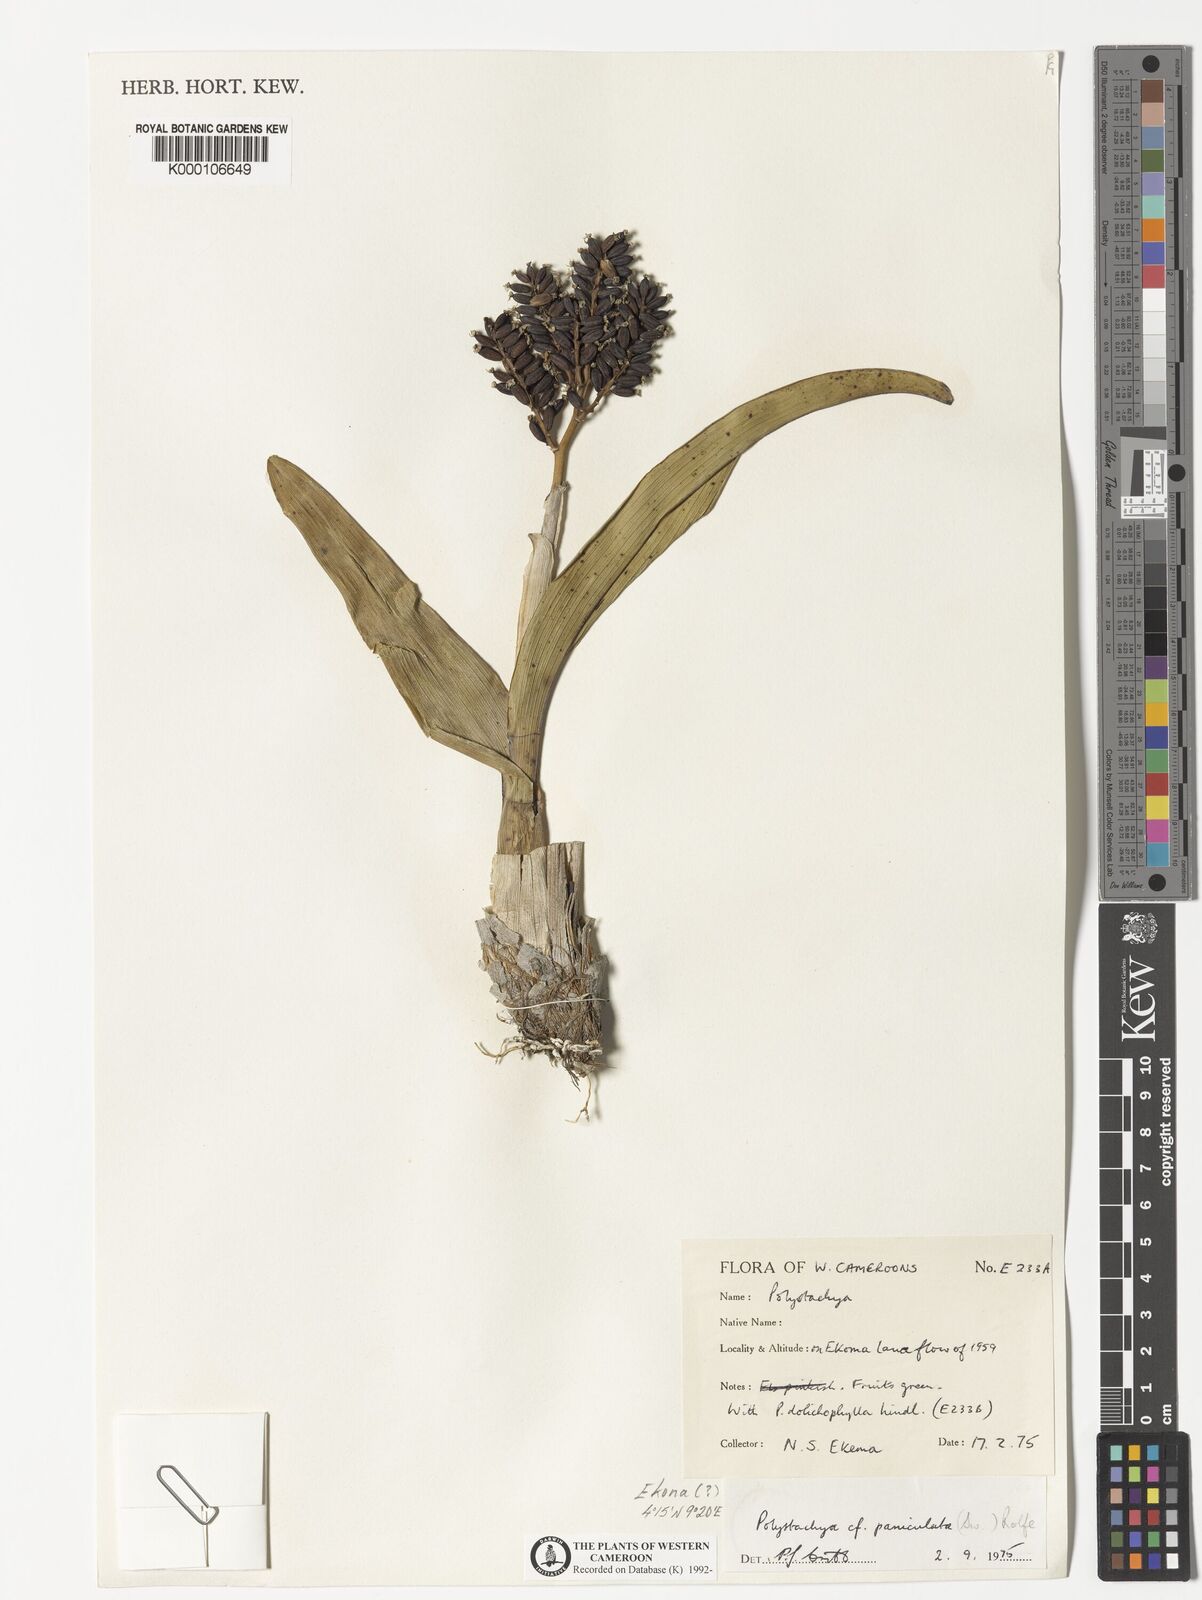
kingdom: Plantae
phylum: Tracheophyta
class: Liliopsida
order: Asparagales
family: Orchidaceae
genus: Polystachya
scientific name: Polystachya paniculata
